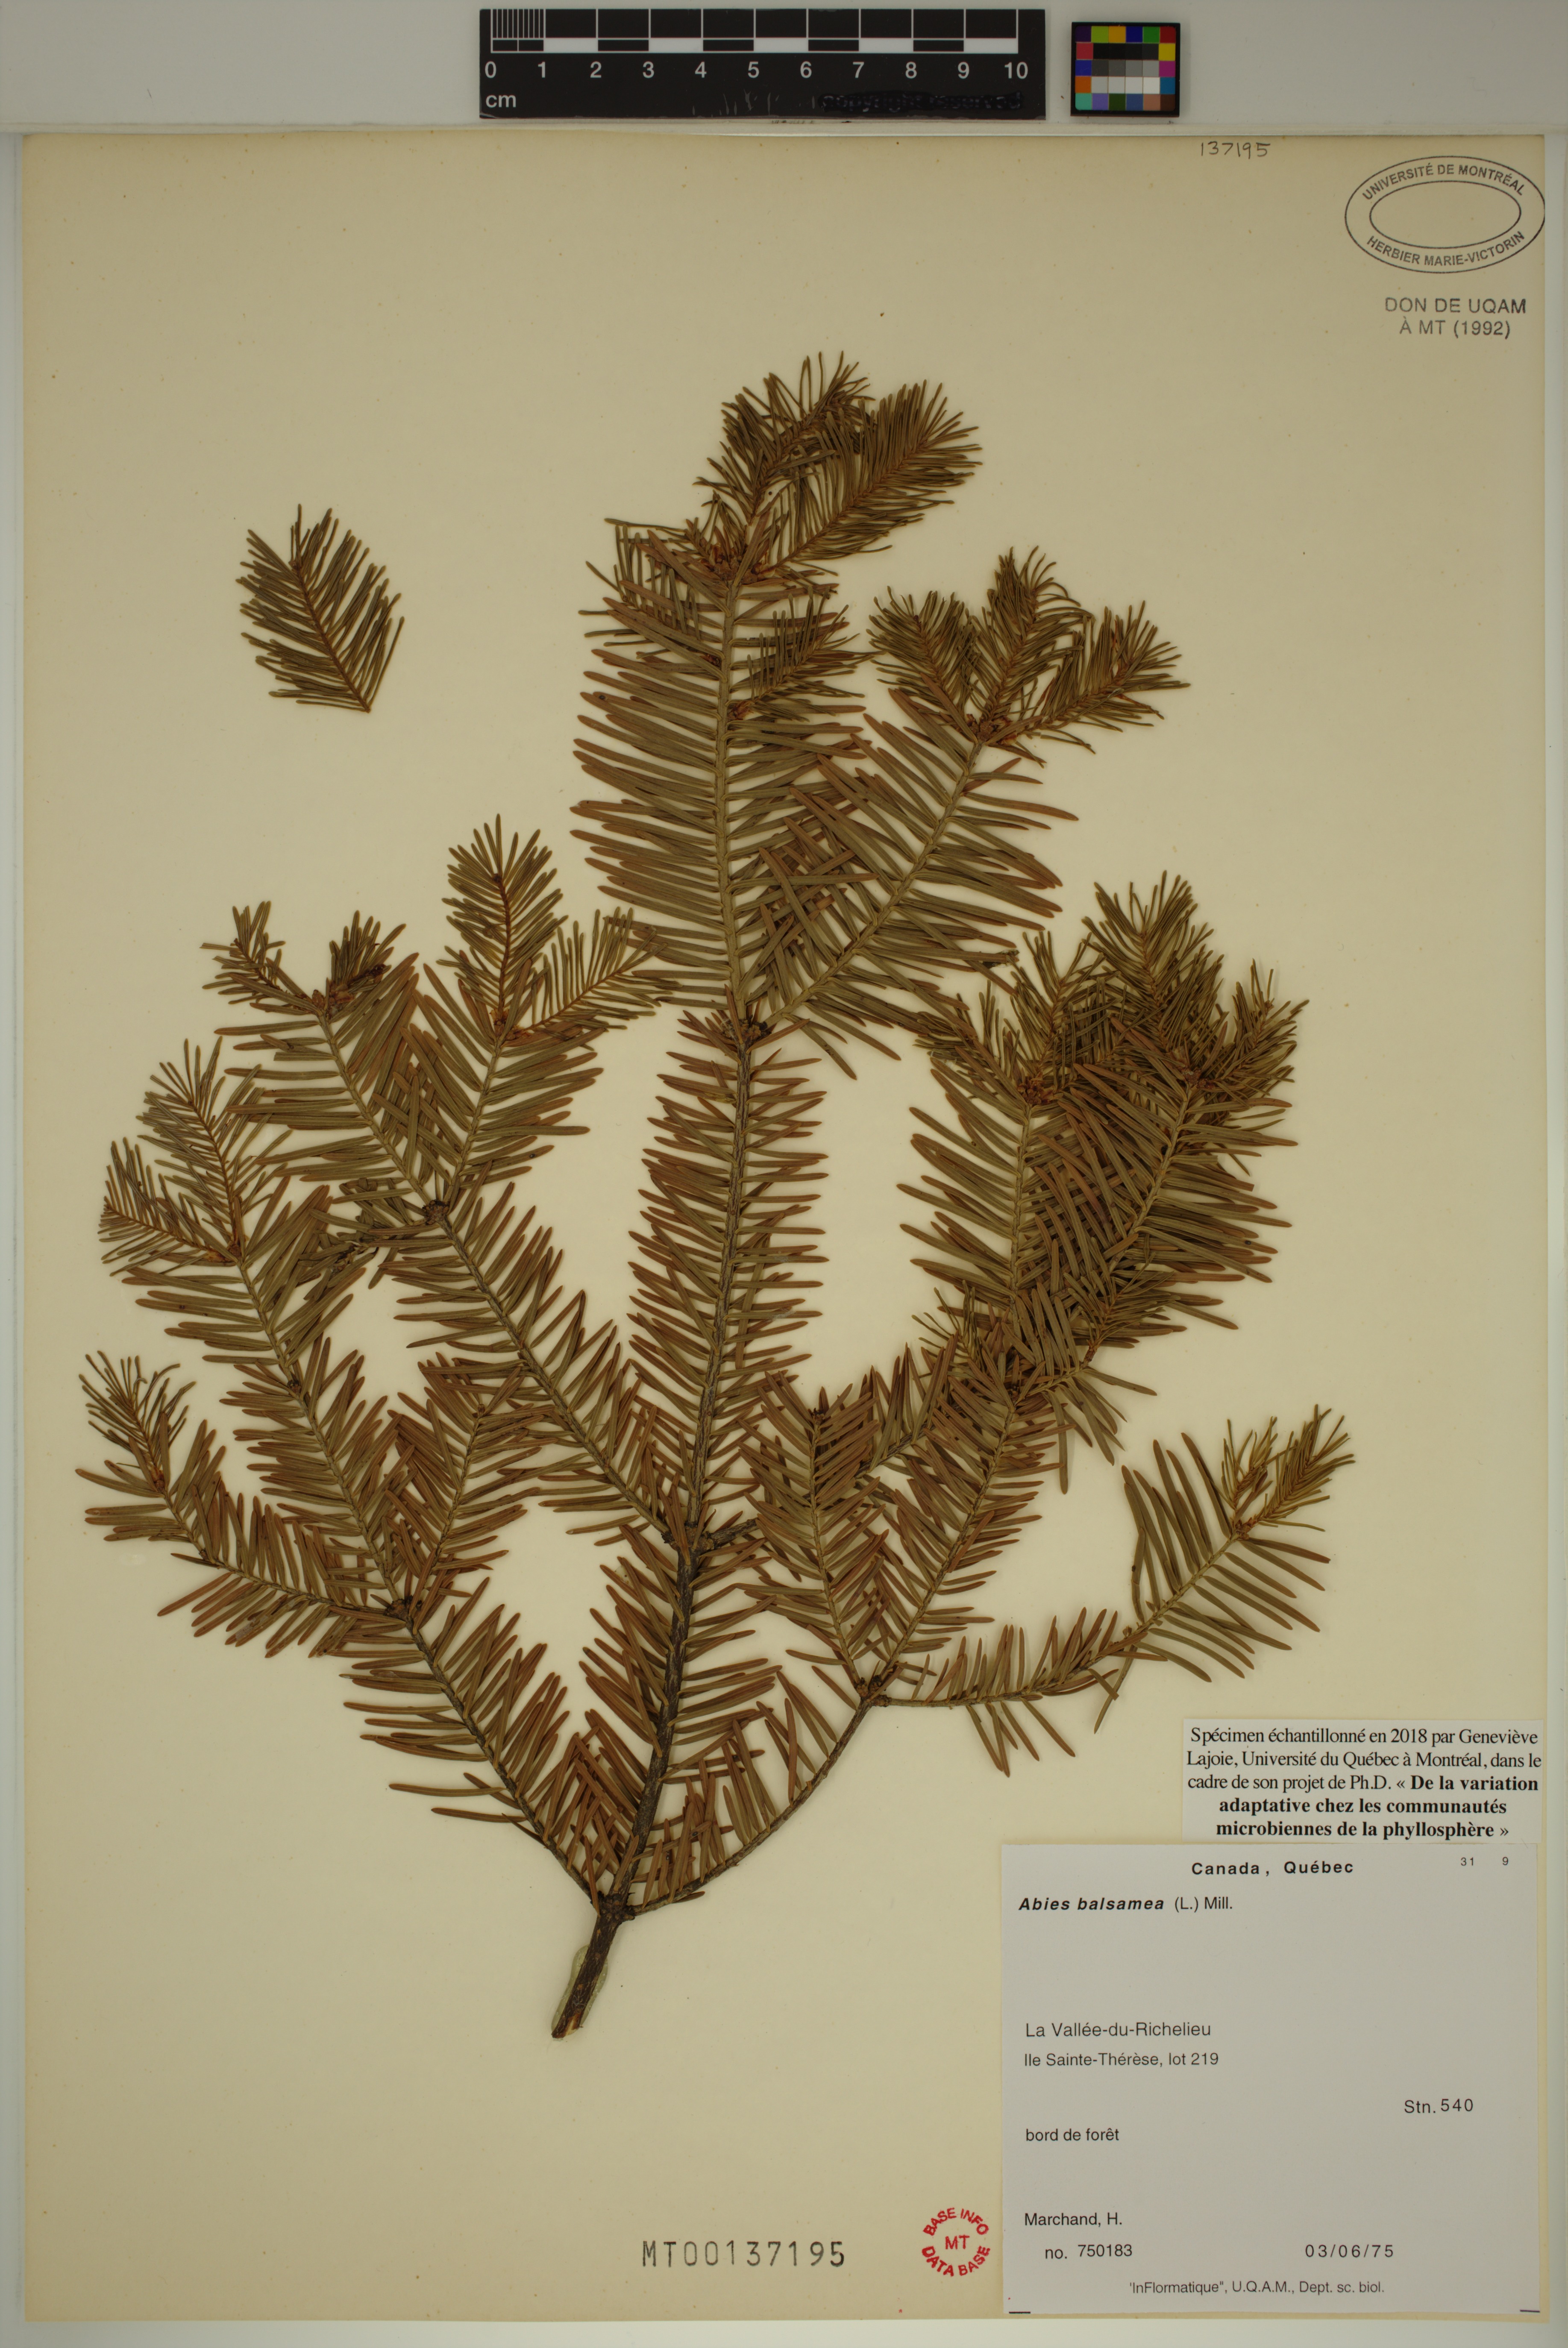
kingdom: Plantae
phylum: Tracheophyta
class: Pinopsida
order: Pinales
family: Pinaceae
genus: Abies
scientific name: Abies balsamea
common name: Balsam fir
